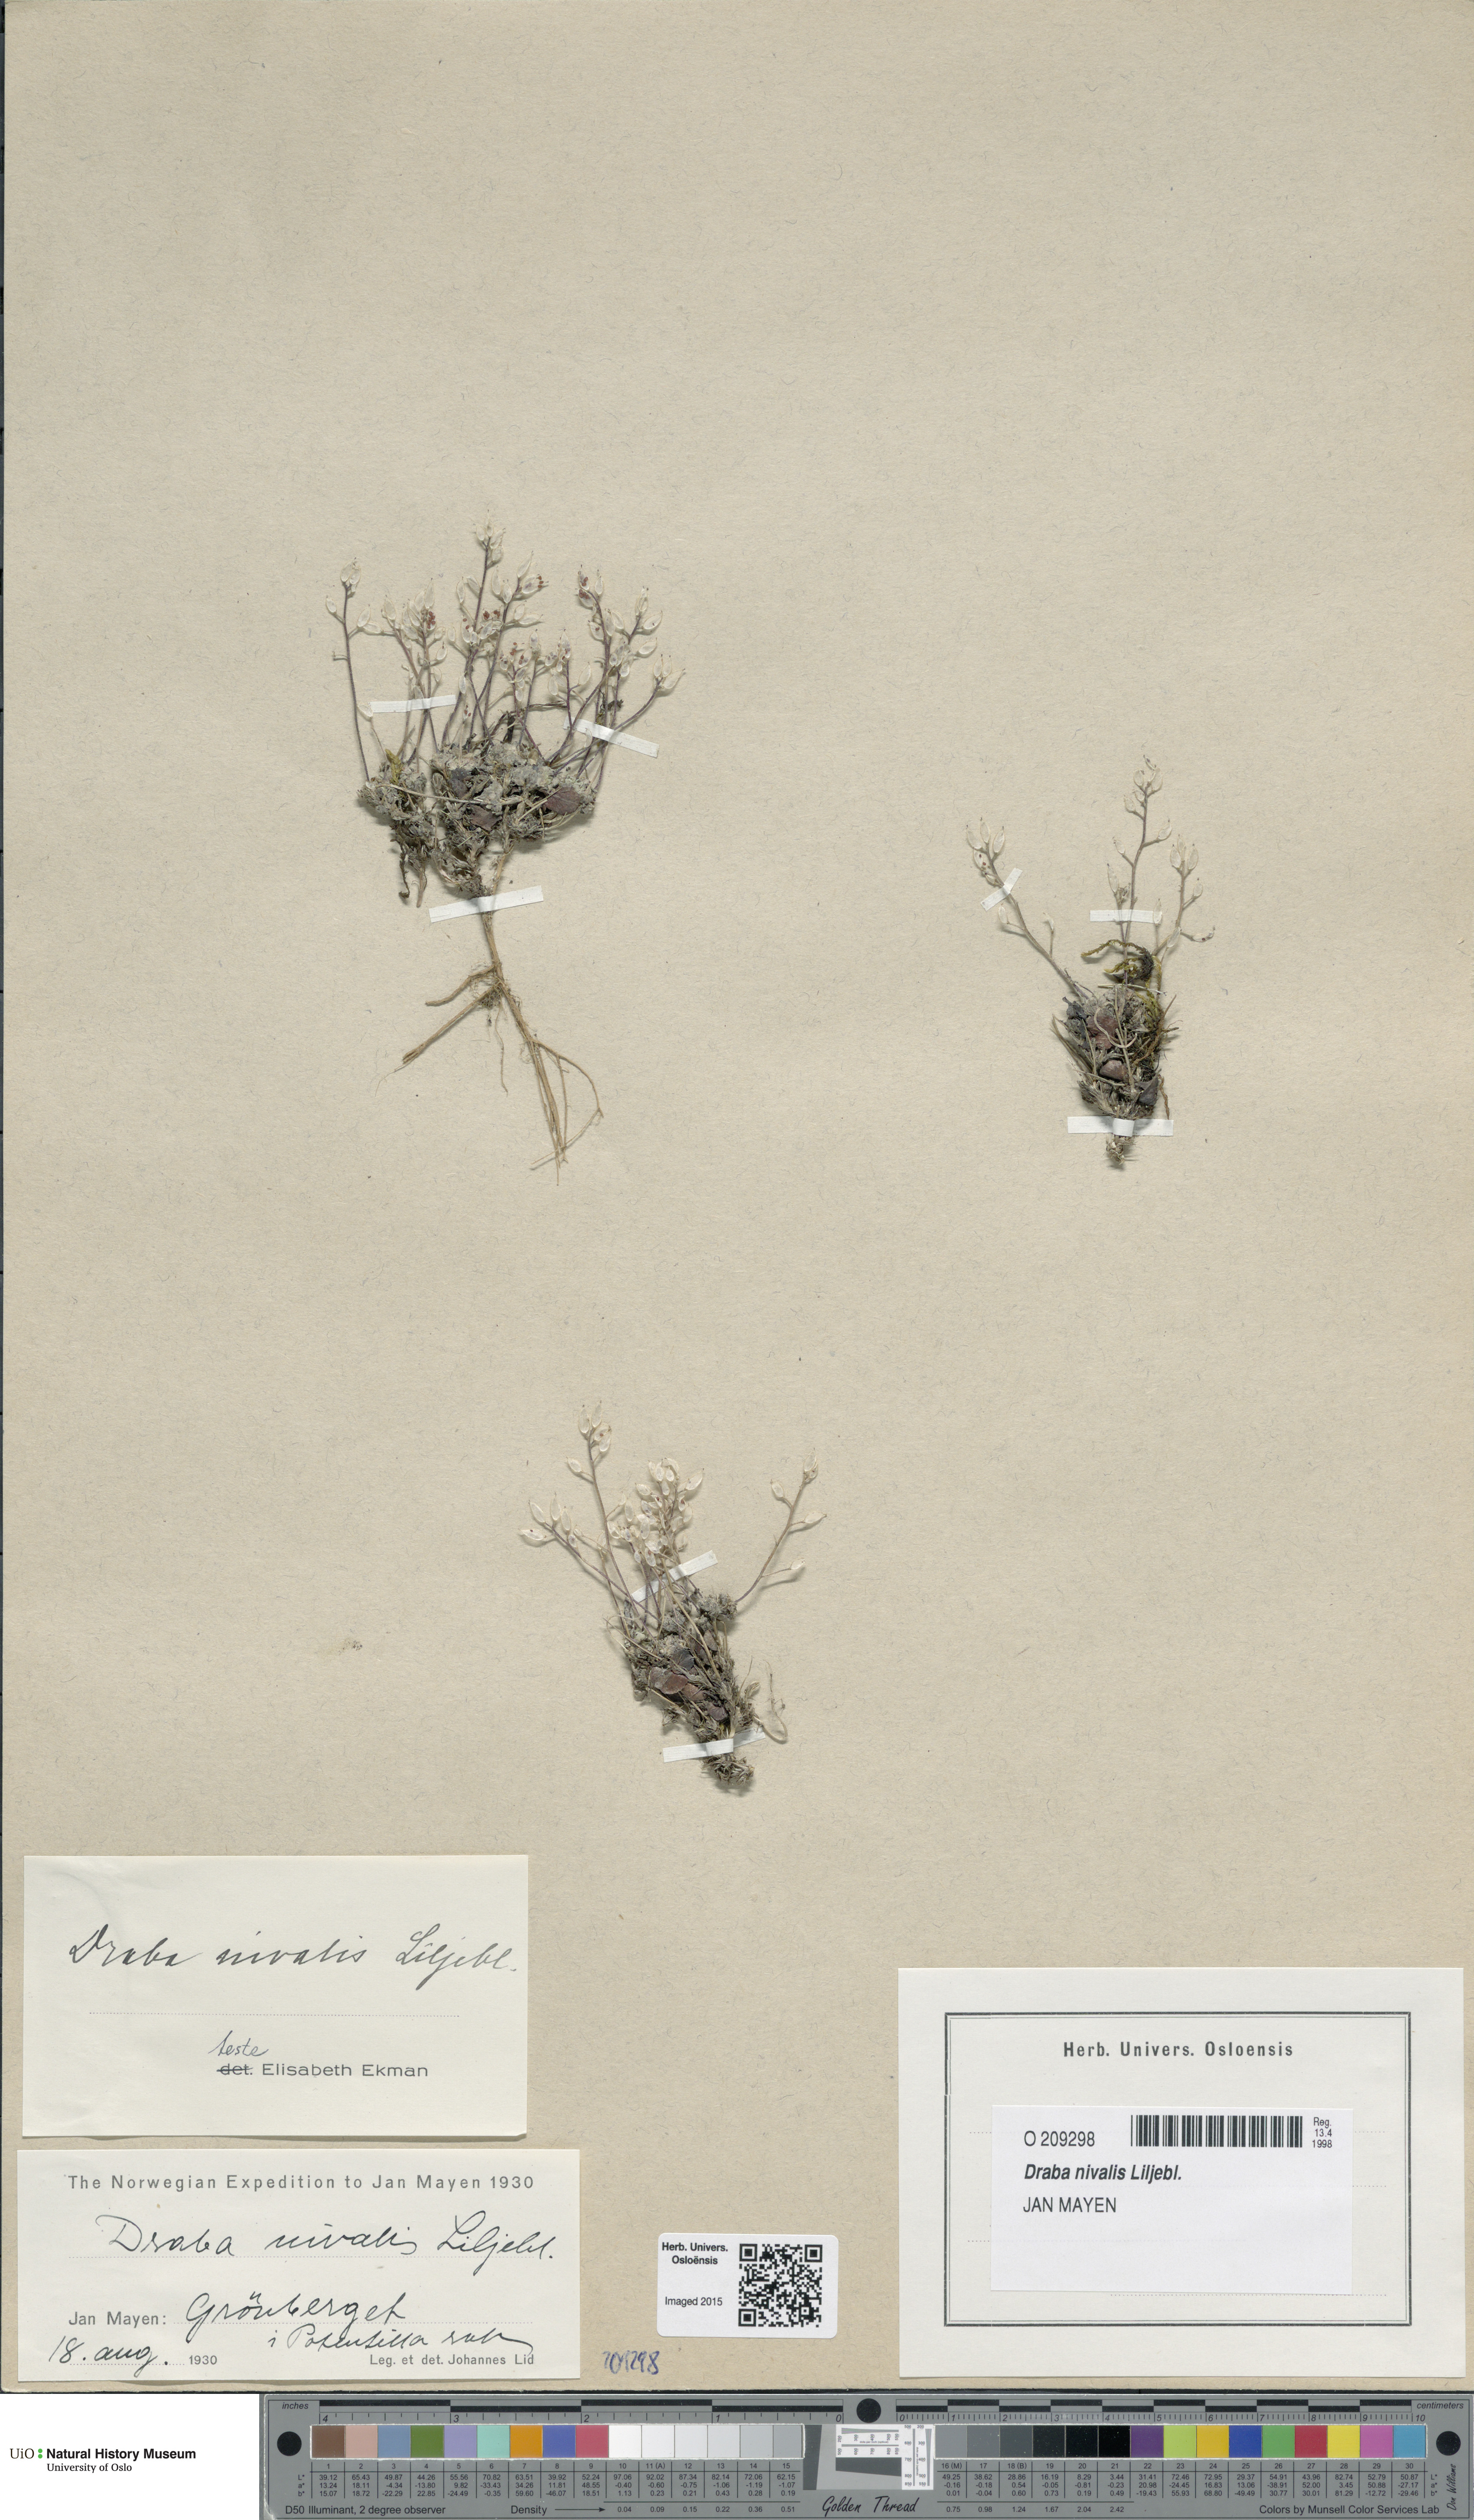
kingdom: Plantae
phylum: Tracheophyta
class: Magnoliopsida
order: Brassicales
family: Brassicaceae
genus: Draba
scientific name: Draba nivalis
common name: Snow draba
